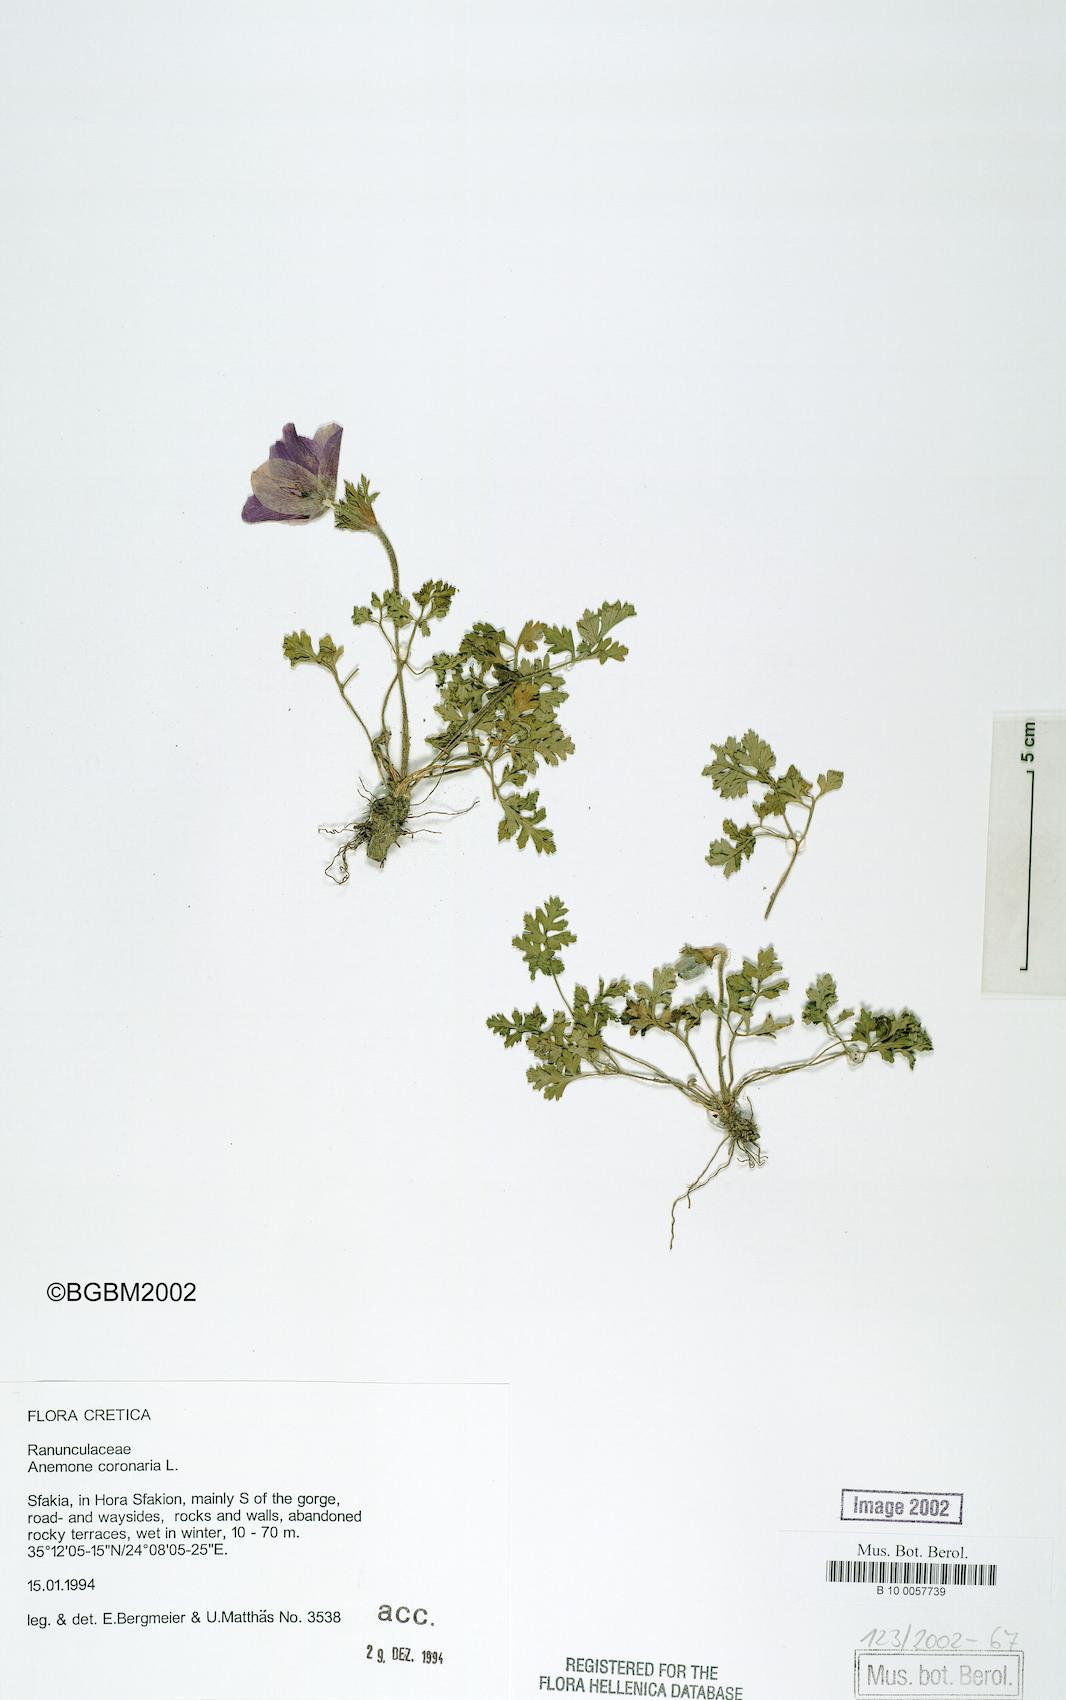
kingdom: Plantae
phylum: Tracheophyta
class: Magnoliopsida
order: Ranunculales
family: Ranunculaceae
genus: Anemone
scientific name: Anemone coronaria
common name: Poppy anemone
